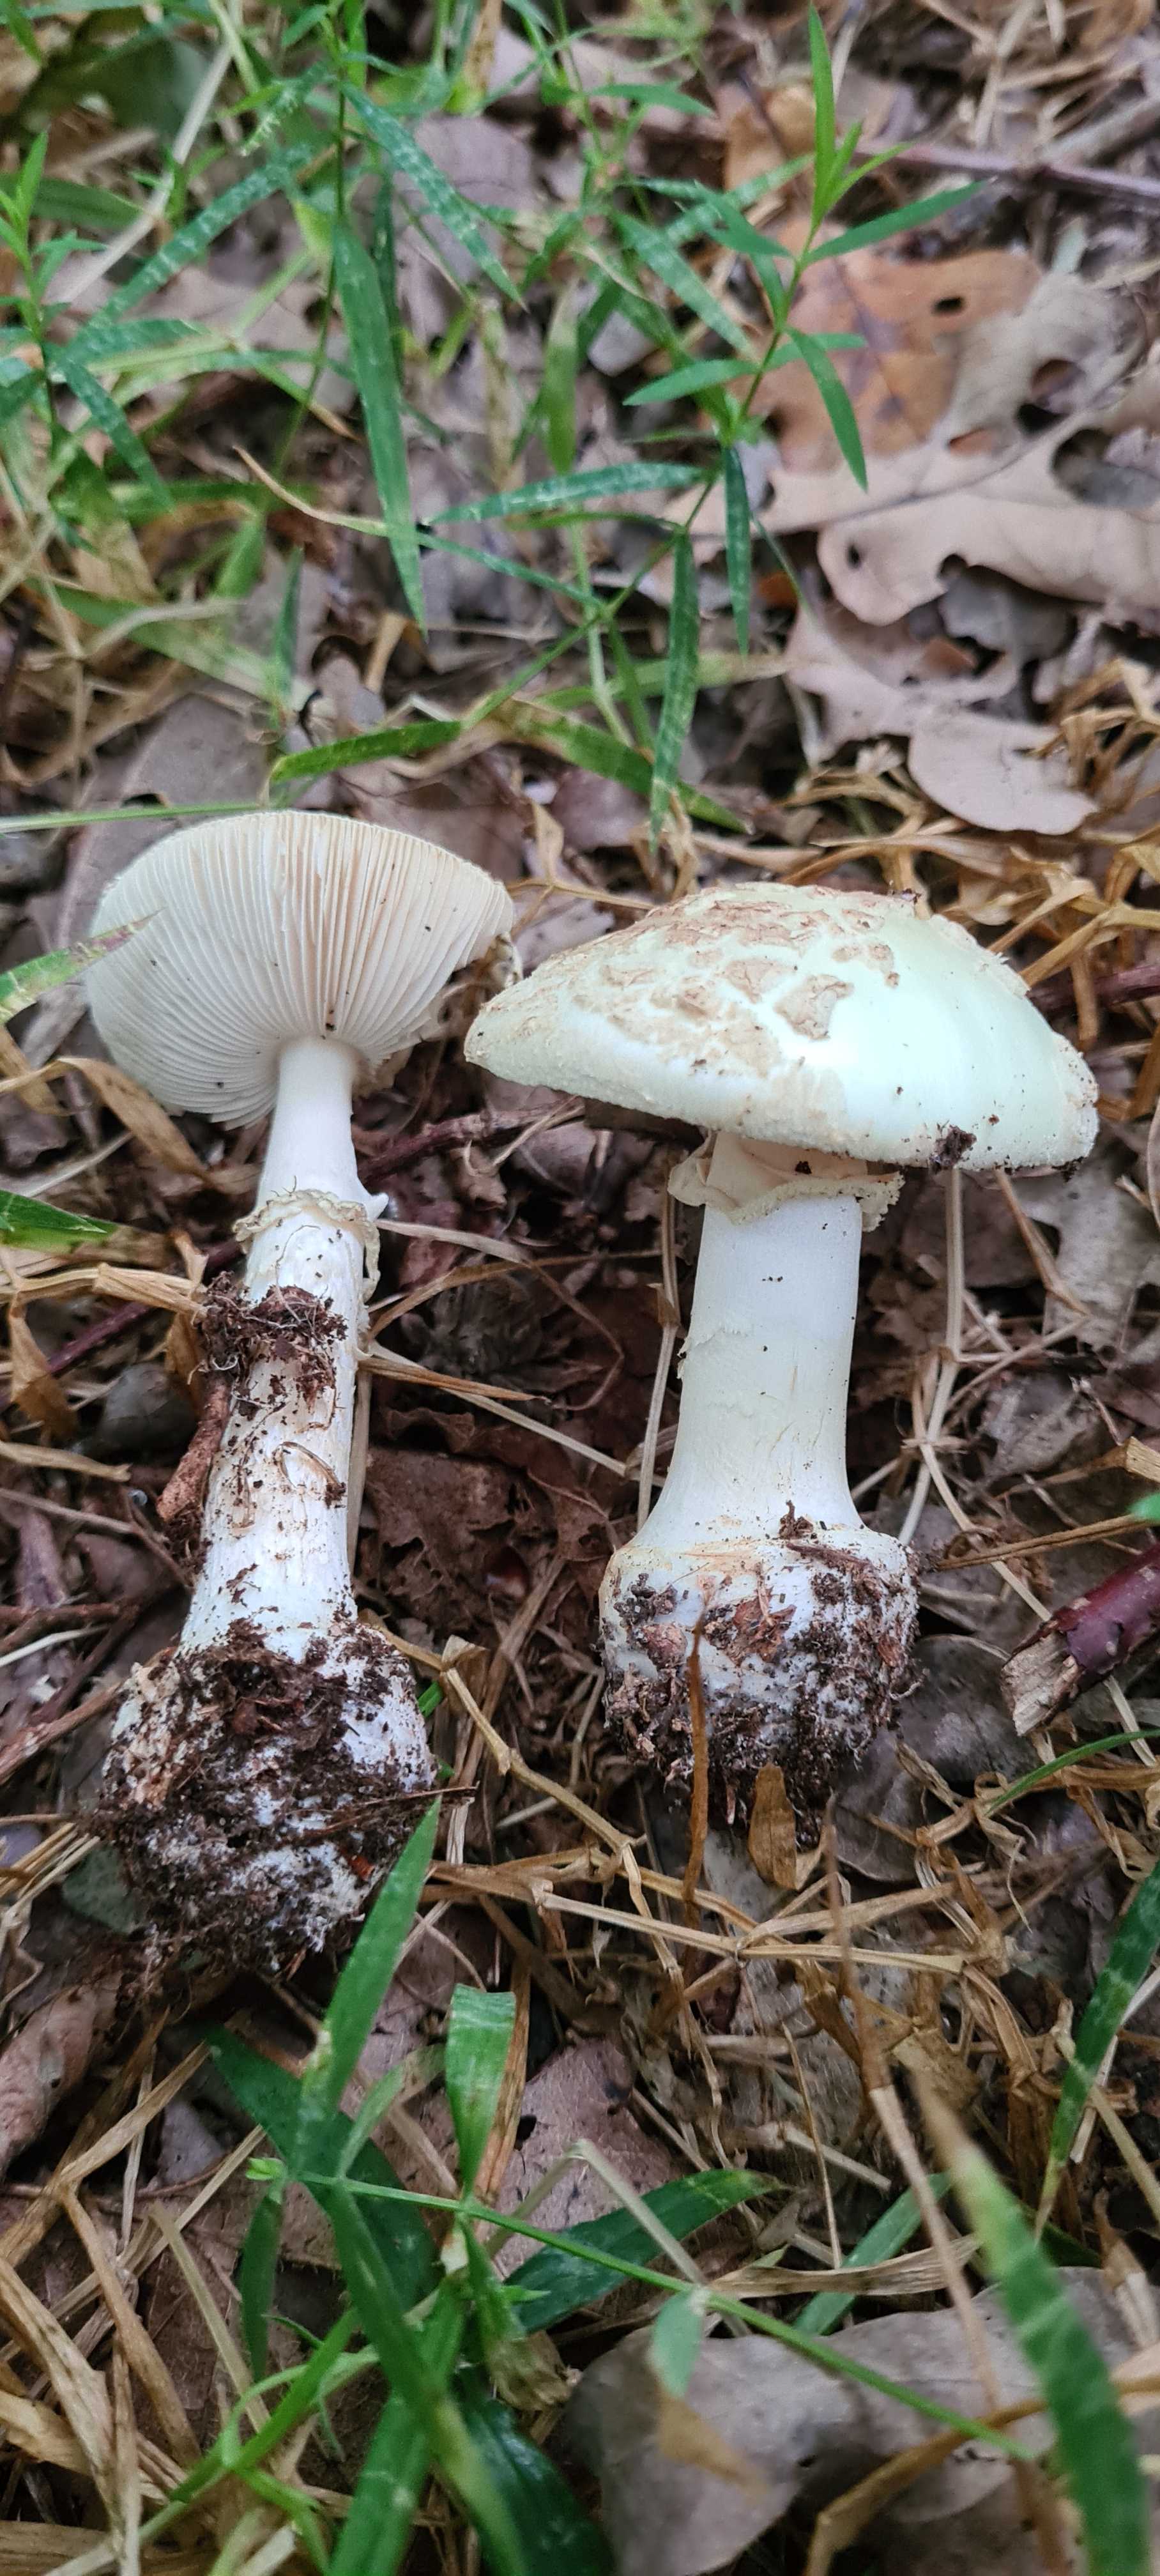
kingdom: Fungi
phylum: Basidiomycota
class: Agaricomycetes
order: Agaricales
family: Amanitaceae
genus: Amanita
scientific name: Amanita citrina
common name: kugleknoldet fluesvamp
